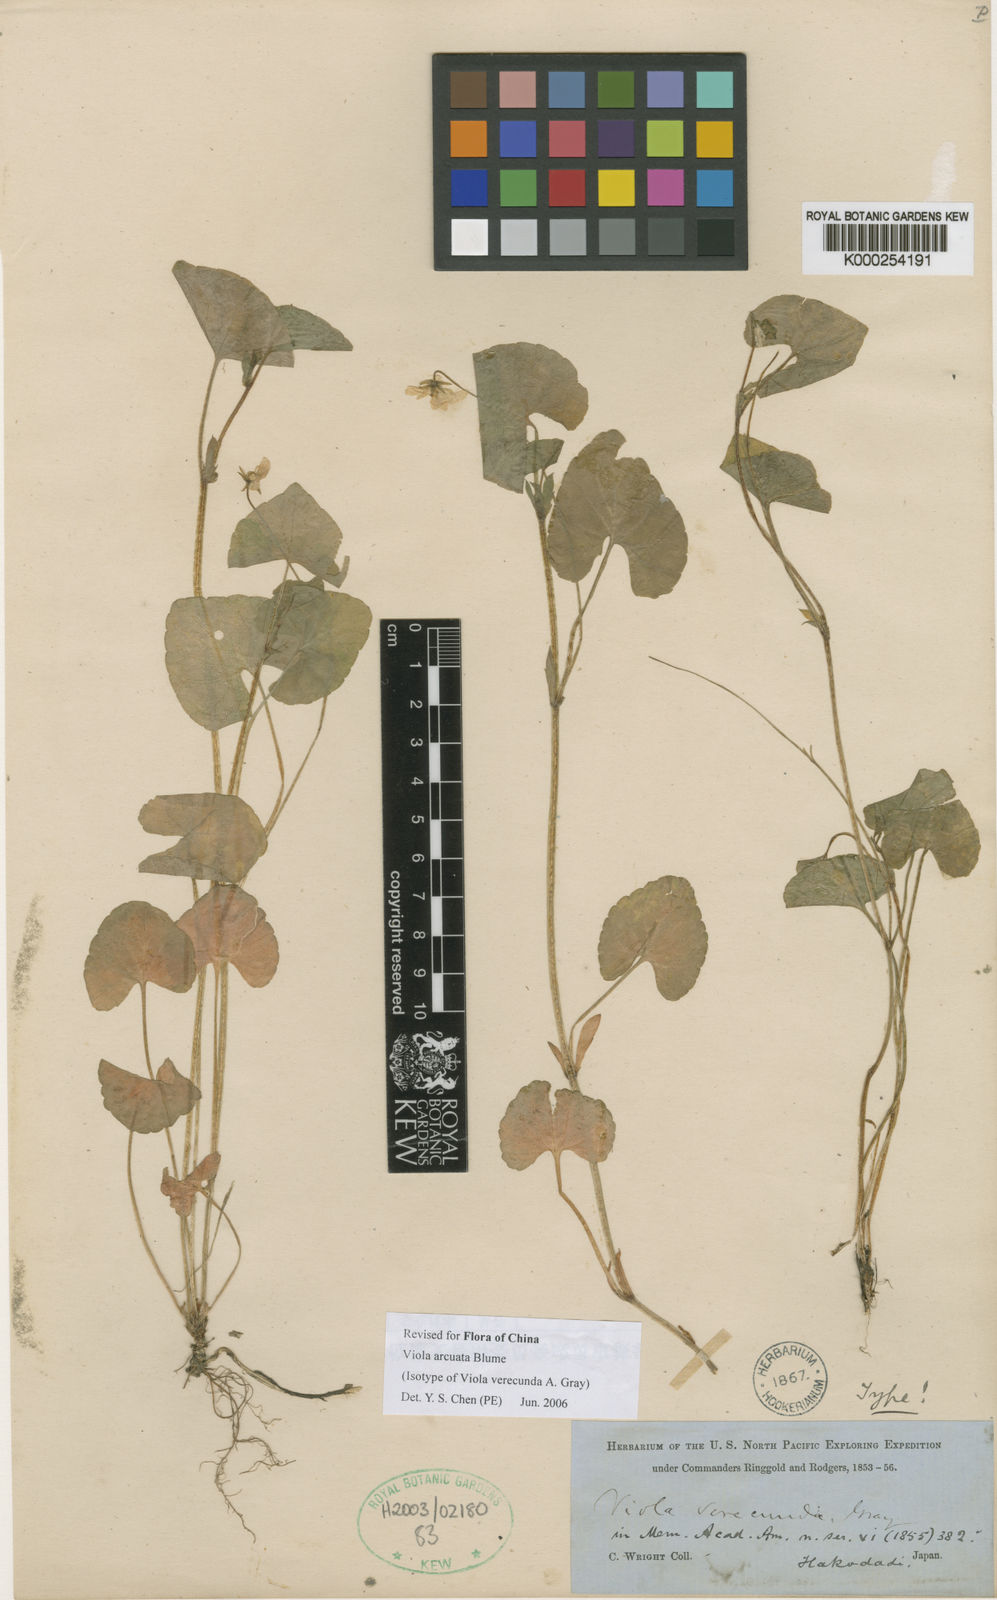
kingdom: Plantae
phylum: Tracheophyta
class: Magnoliopsida
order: Malpighiales
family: Violaceae
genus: Viola
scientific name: Viola hamiltoniana
